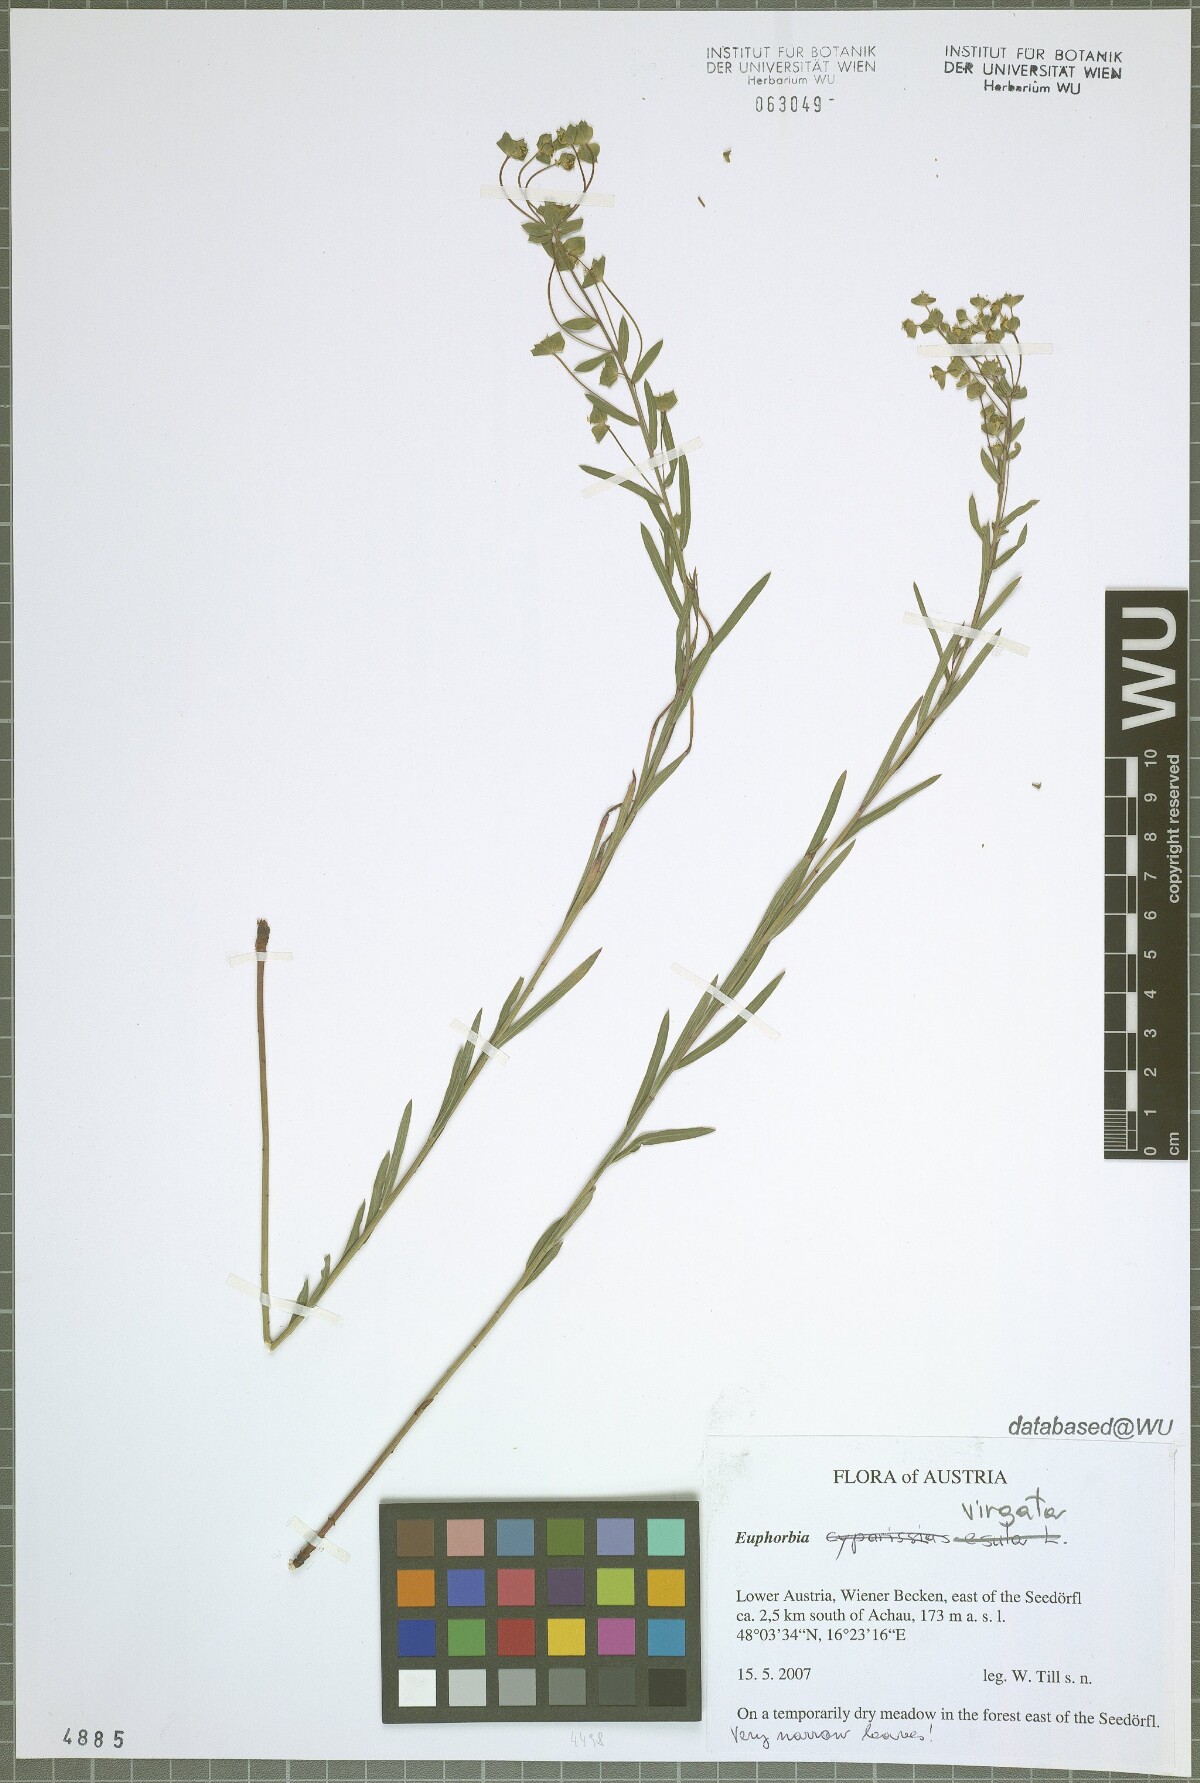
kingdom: Plantae
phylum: Tracheophyta
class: Magnoliopsida
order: Malpighiales
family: Euphorbiaceae
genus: Euphorbia
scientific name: Euphorbia virgata
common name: Leafy spurge
